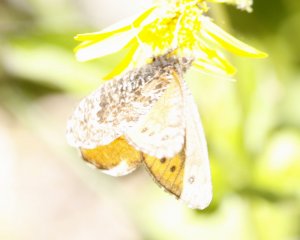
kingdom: Animalia
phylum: Arthropoda
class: Insecta
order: Lepidoptera
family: Nymphalidae
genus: Oeneis
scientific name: Oeneis chryxus
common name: Chryxus Arctic
